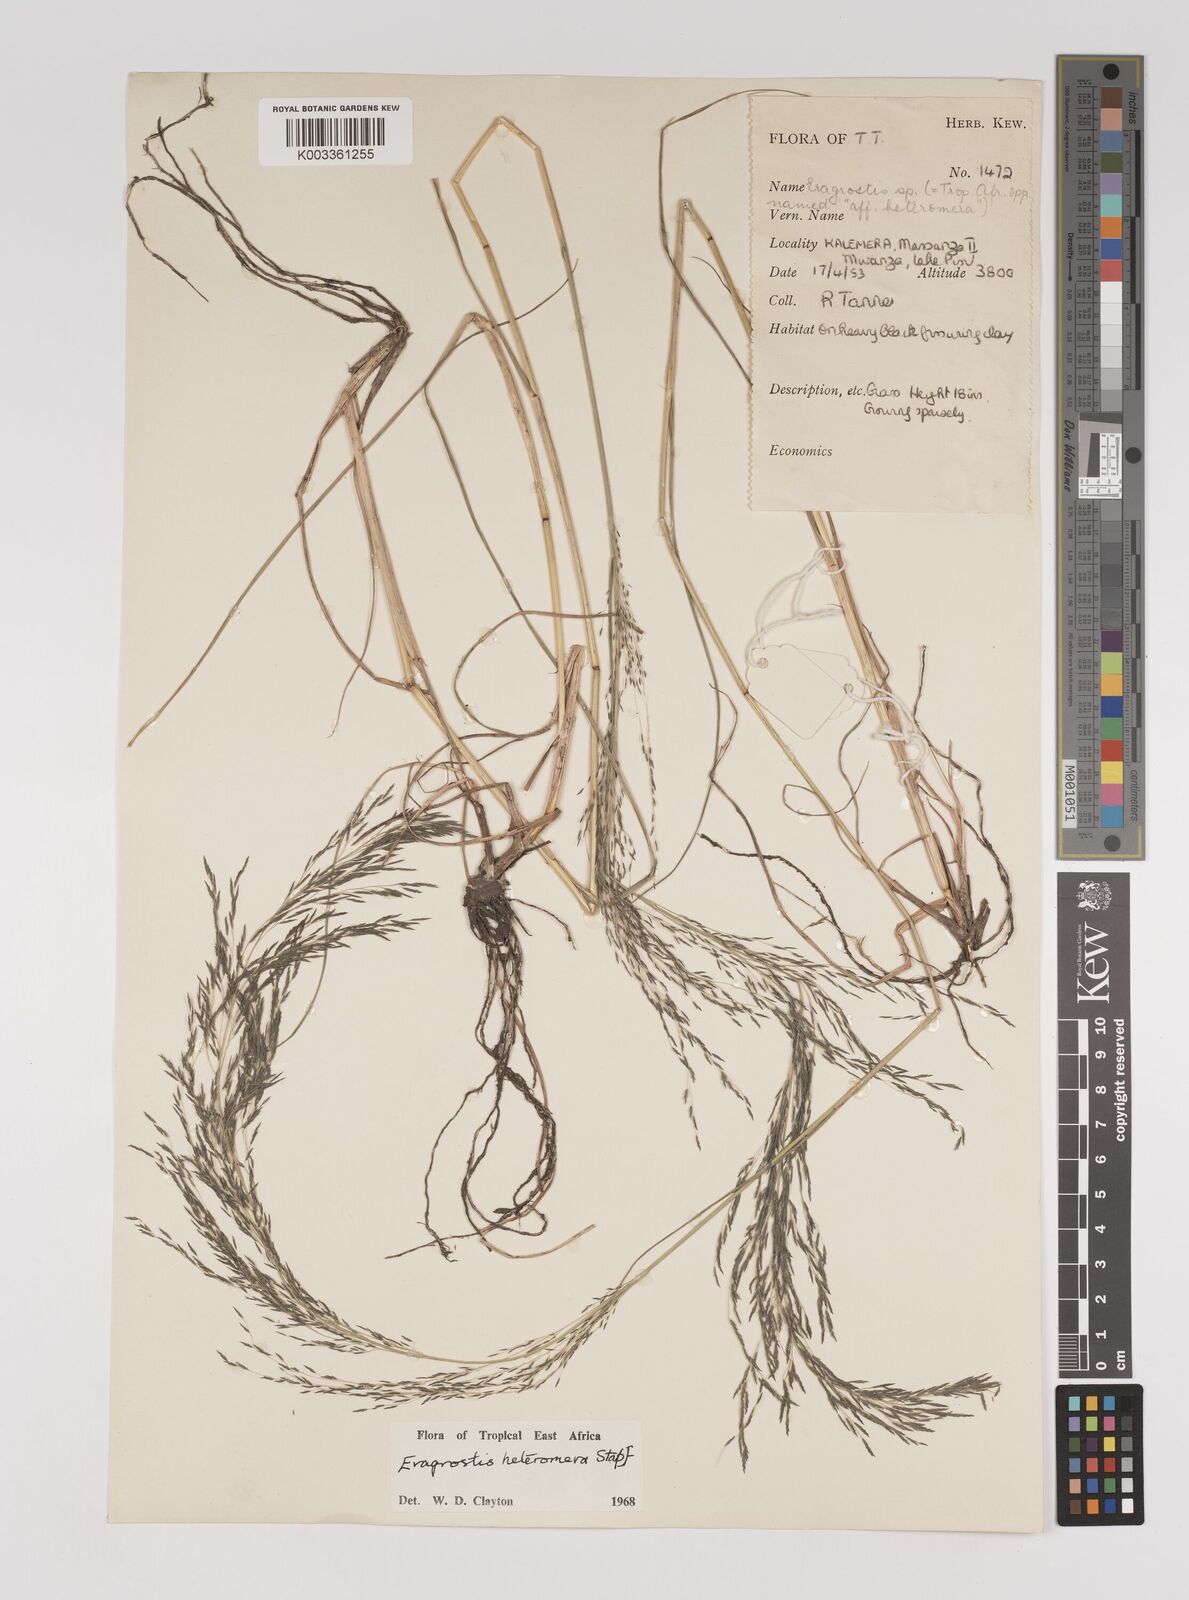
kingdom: Plantae
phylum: Tracheophyta
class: Liliopsida
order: Poales
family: Poaceae
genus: Eragrostis
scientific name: Eragrostis heteromera
